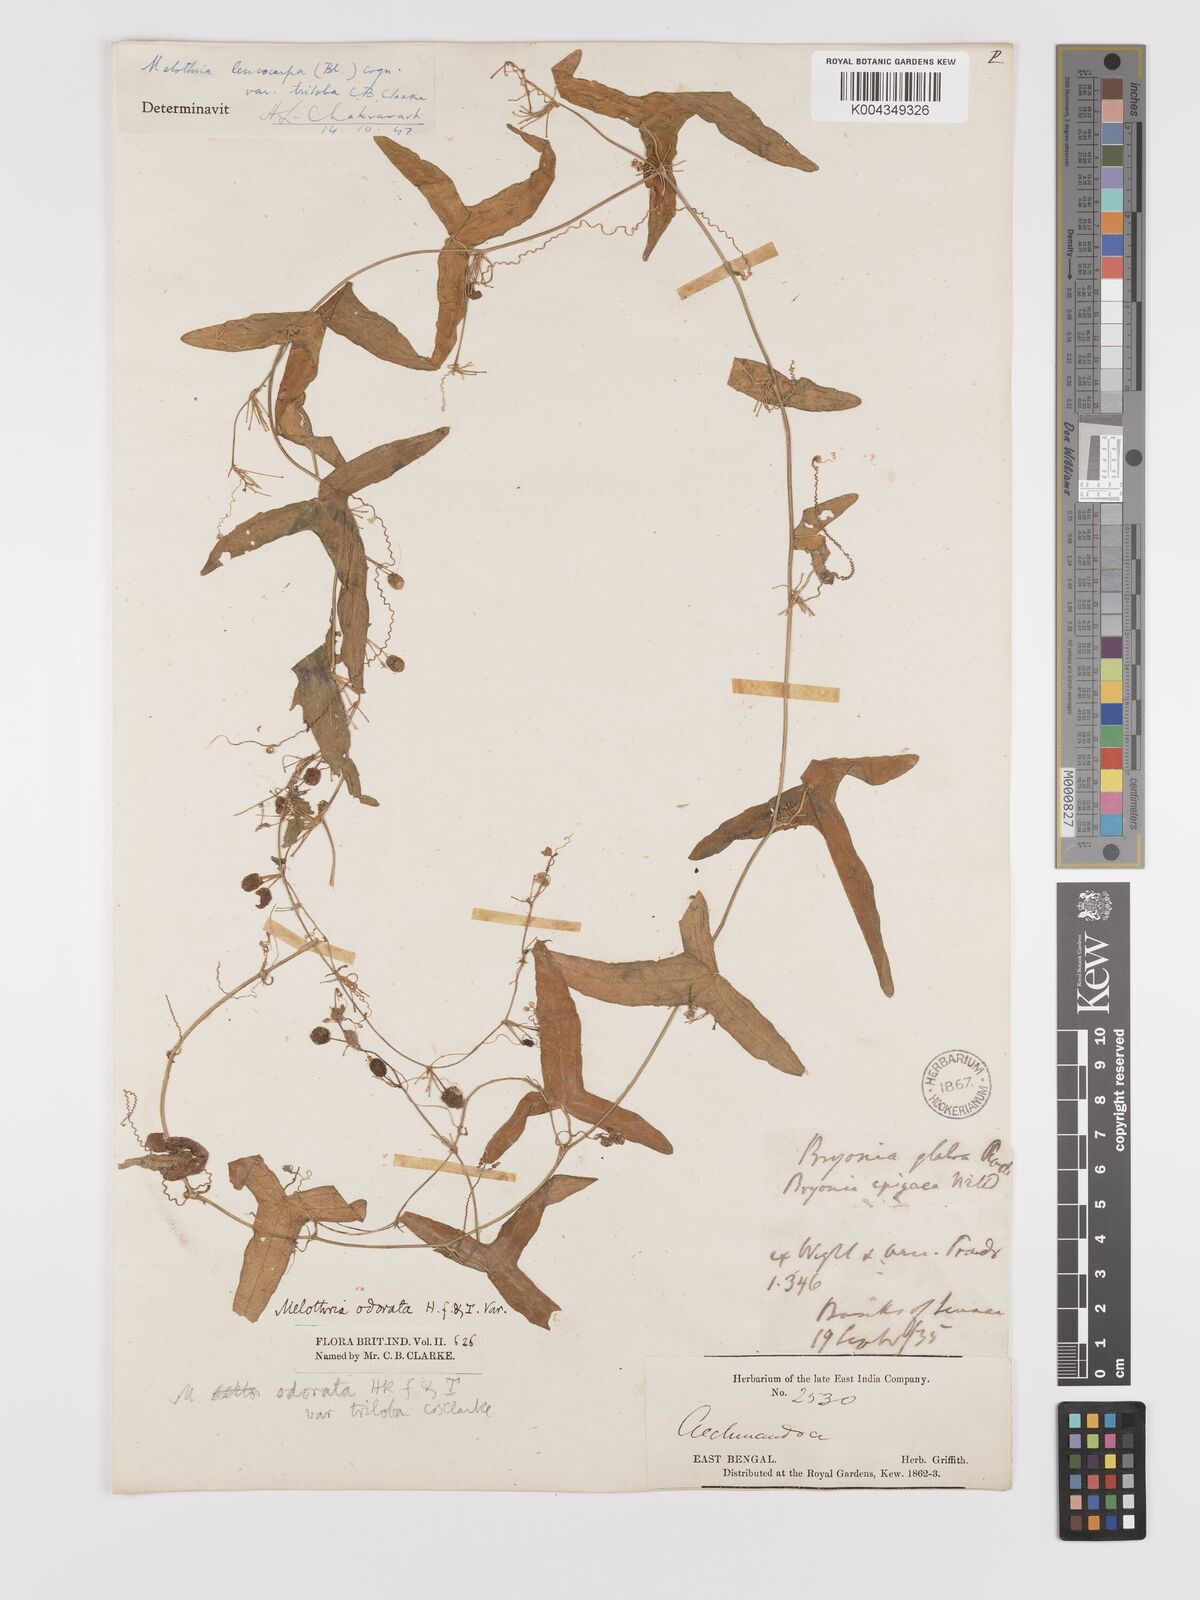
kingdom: Plantae
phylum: Tracheophyta
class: Magnoliopsida
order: Cucurbitales
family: Cucurbitaceae
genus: Zehneria
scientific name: Zehneria odorata
